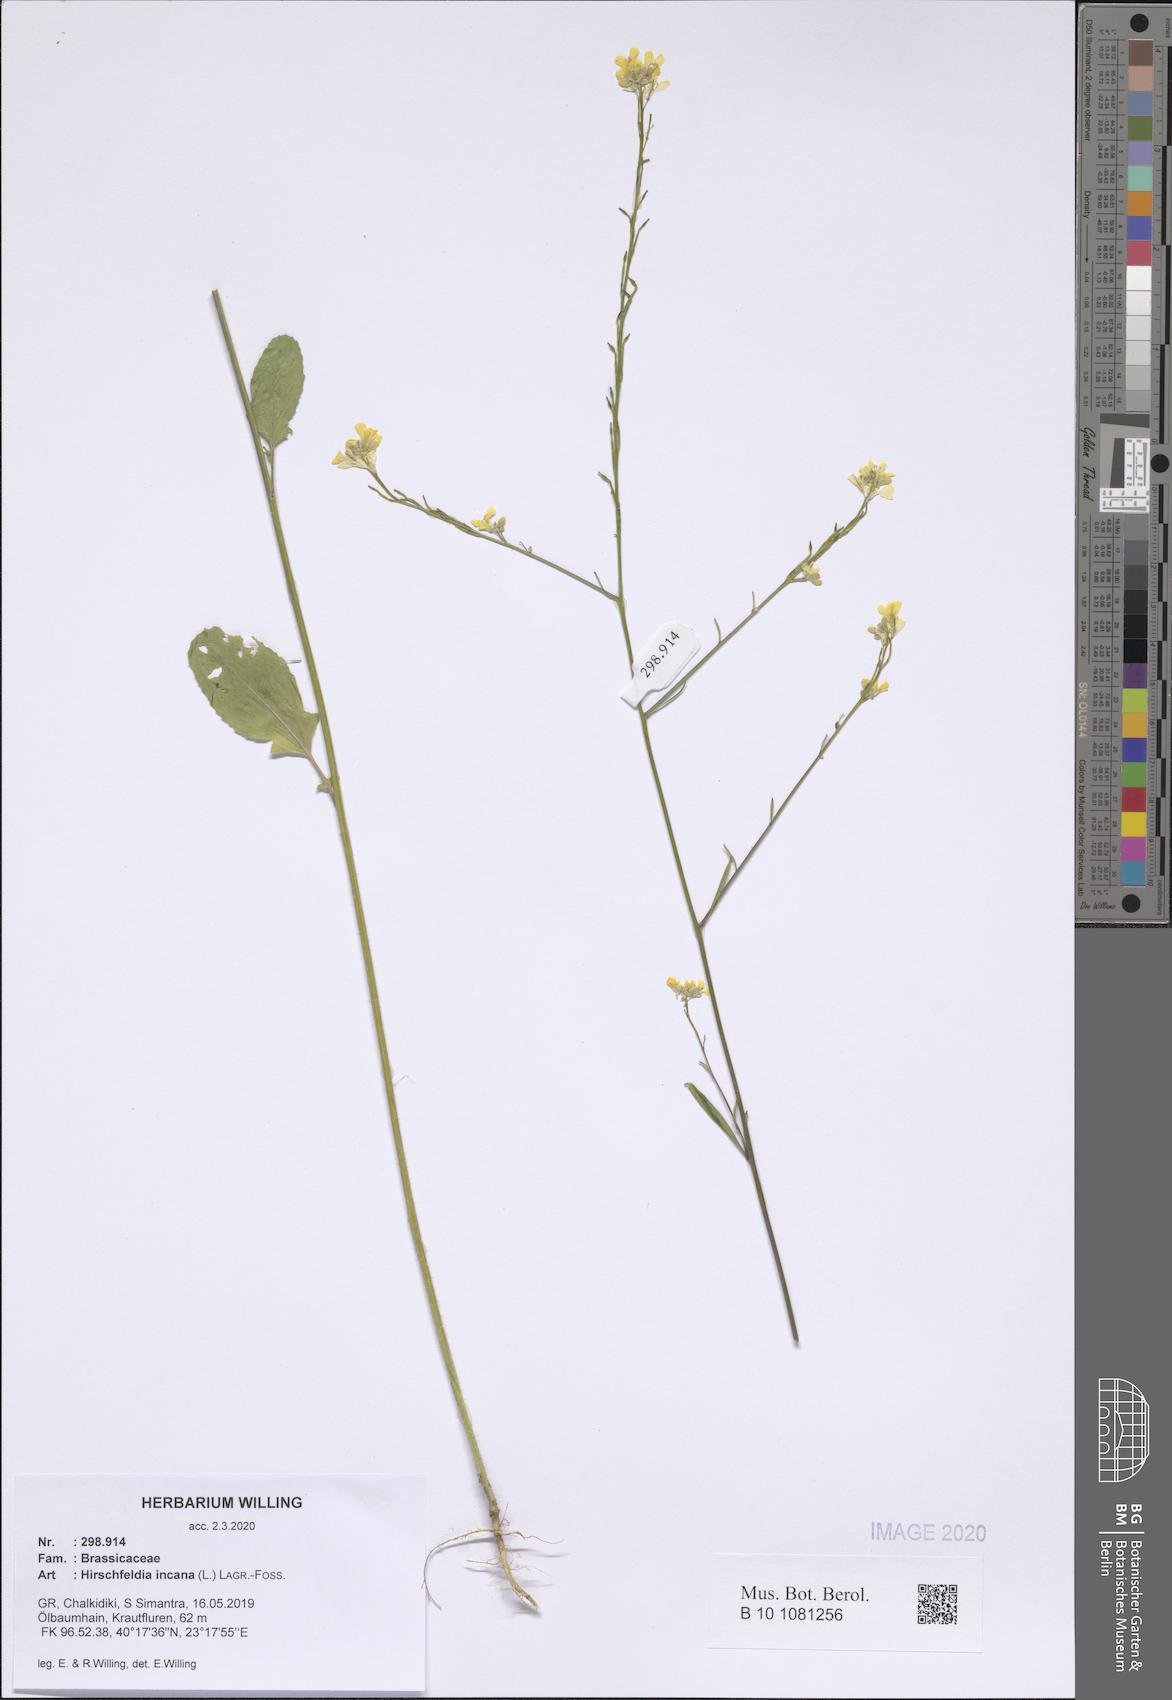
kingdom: Plantae
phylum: Tracheophyta
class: Magnoliopsida
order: Brassicales
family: Brassicaceae
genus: Hirschfeldia
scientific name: Hirschfeldia incana
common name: Hoary mustard
